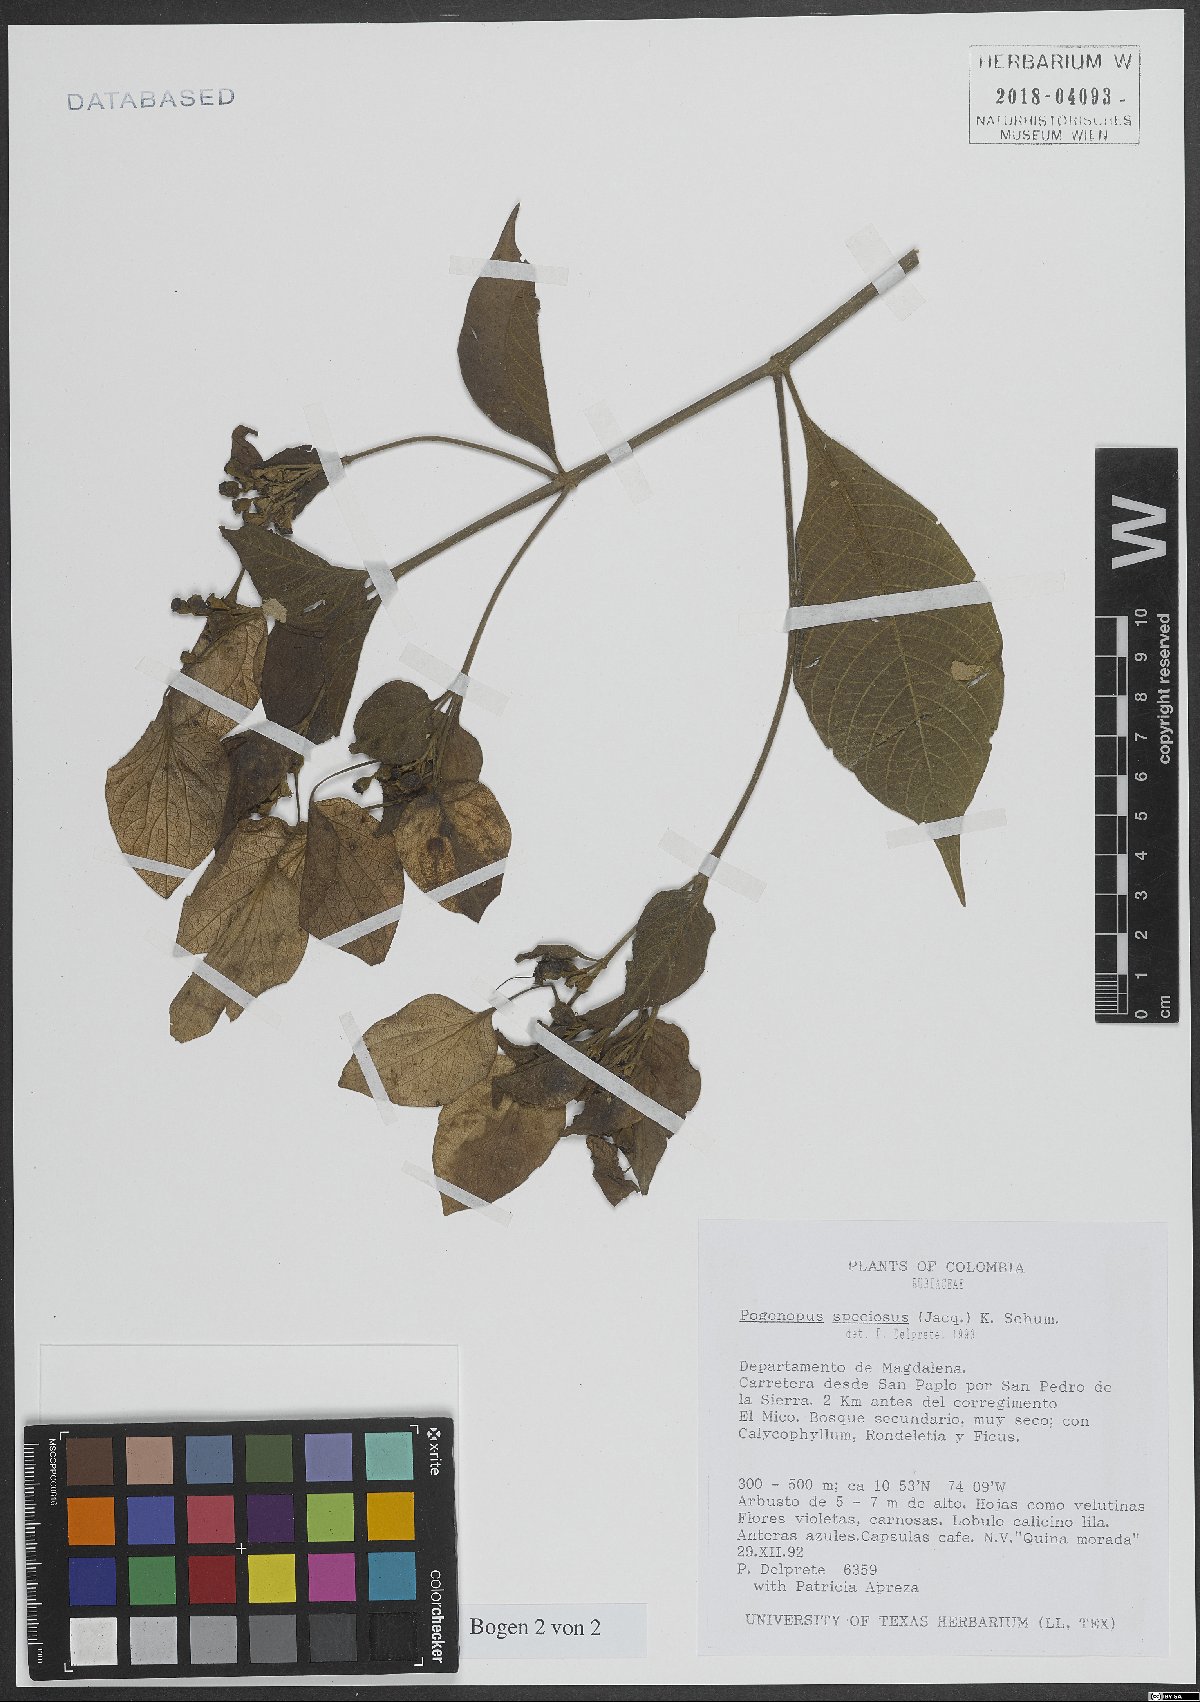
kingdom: Plantae
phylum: Tracheophyta
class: Magnoliopsida
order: Gentianales
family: Rubiaceae
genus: Pogonopus
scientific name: Pogonopus speciosus
